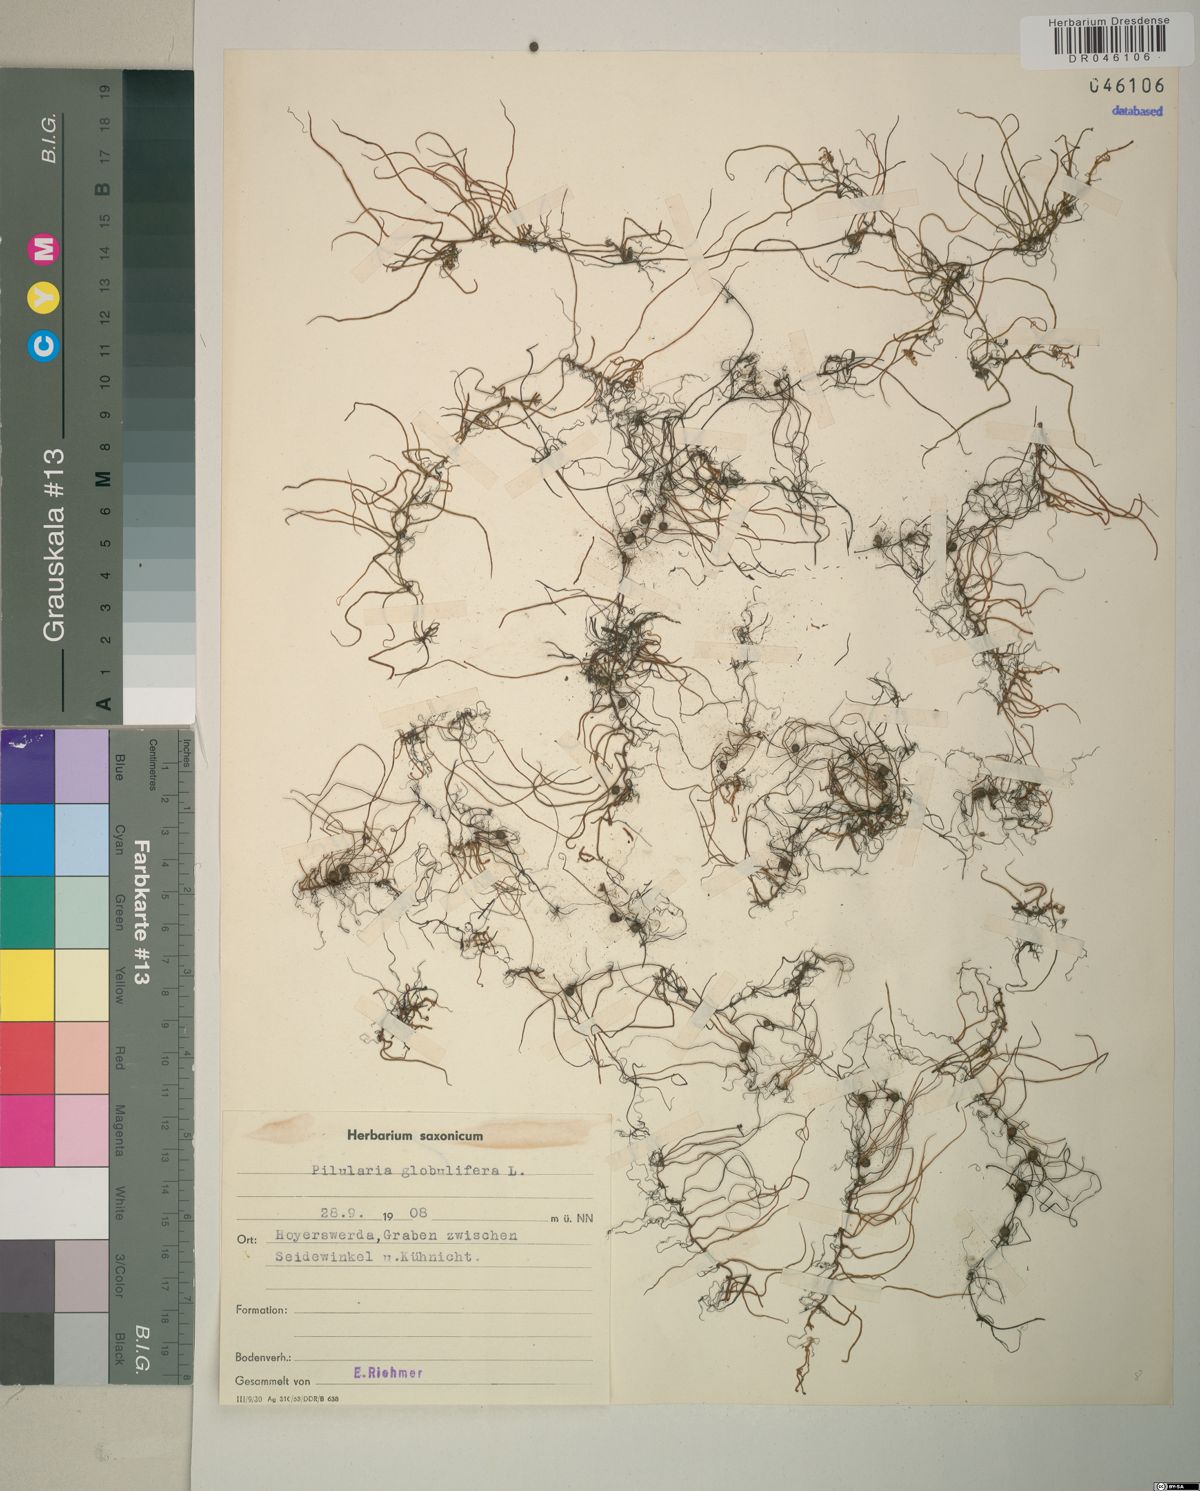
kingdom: Plantae
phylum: Tracheophyta
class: Polypodiopsida
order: Salviniales
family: Marsileaceae
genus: Pilularia
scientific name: Pilularia globulifera
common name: Pillwort
